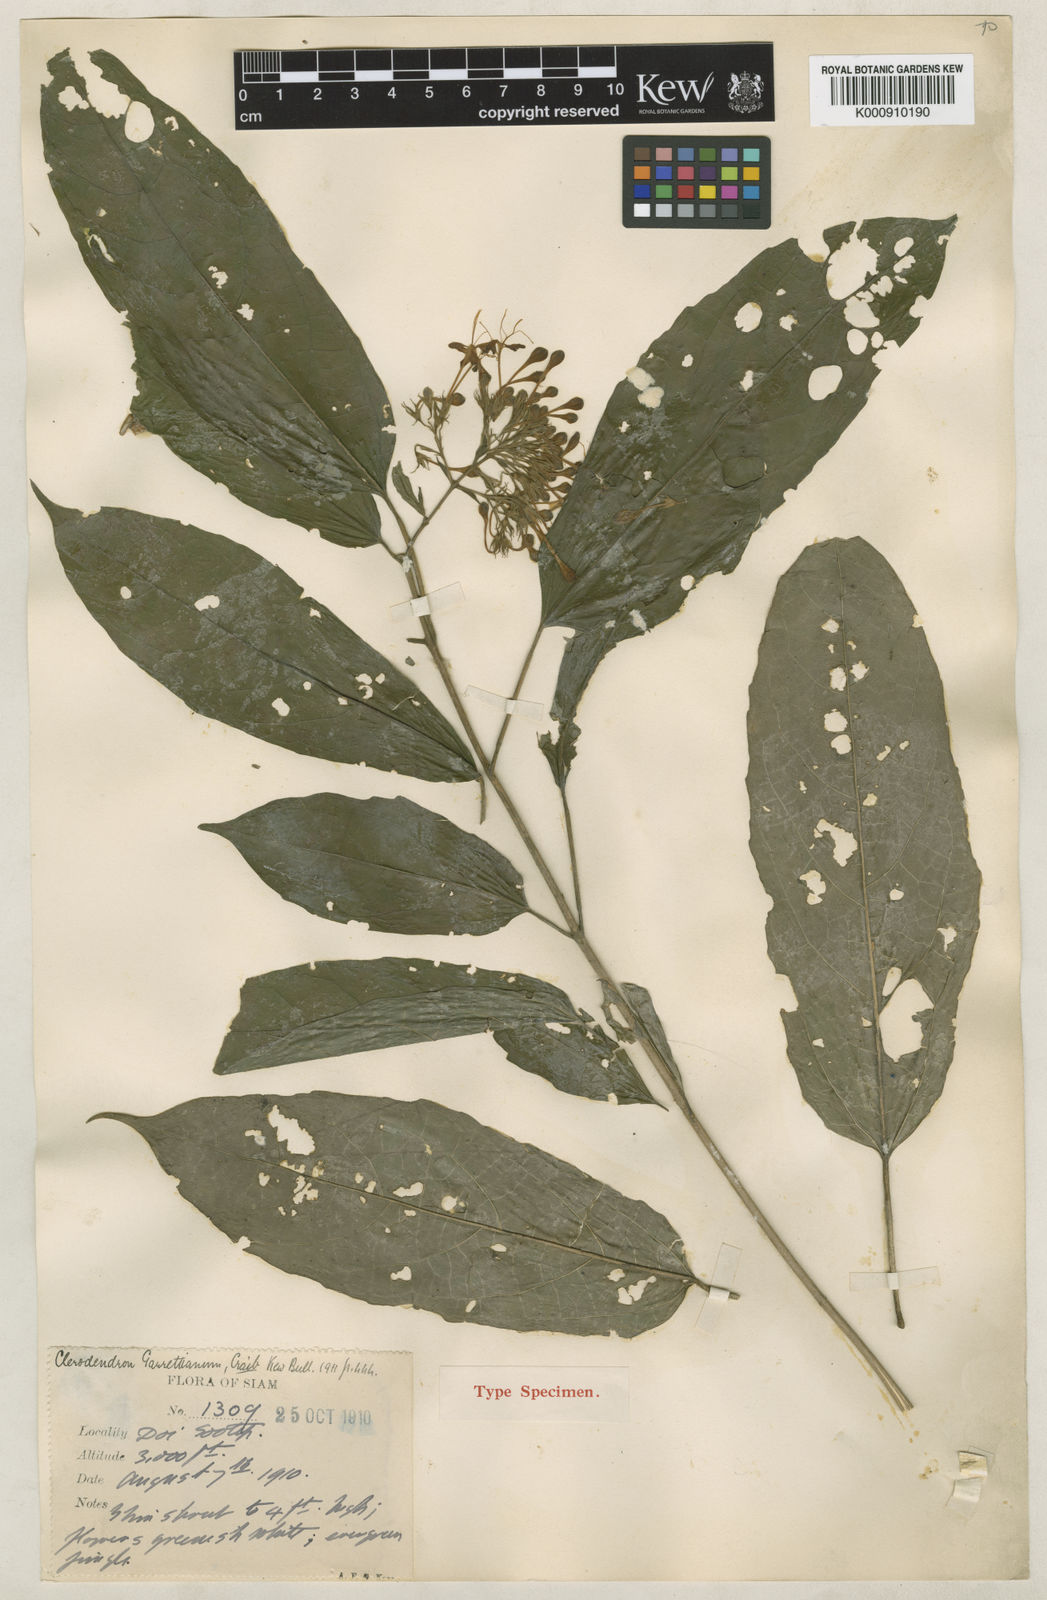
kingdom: Plantae
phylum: Tracheophyta
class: Magnoliopsida
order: Lamiales
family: Lamiaceae
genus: Clerodendrum
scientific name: Clerodendrum garrettianum
